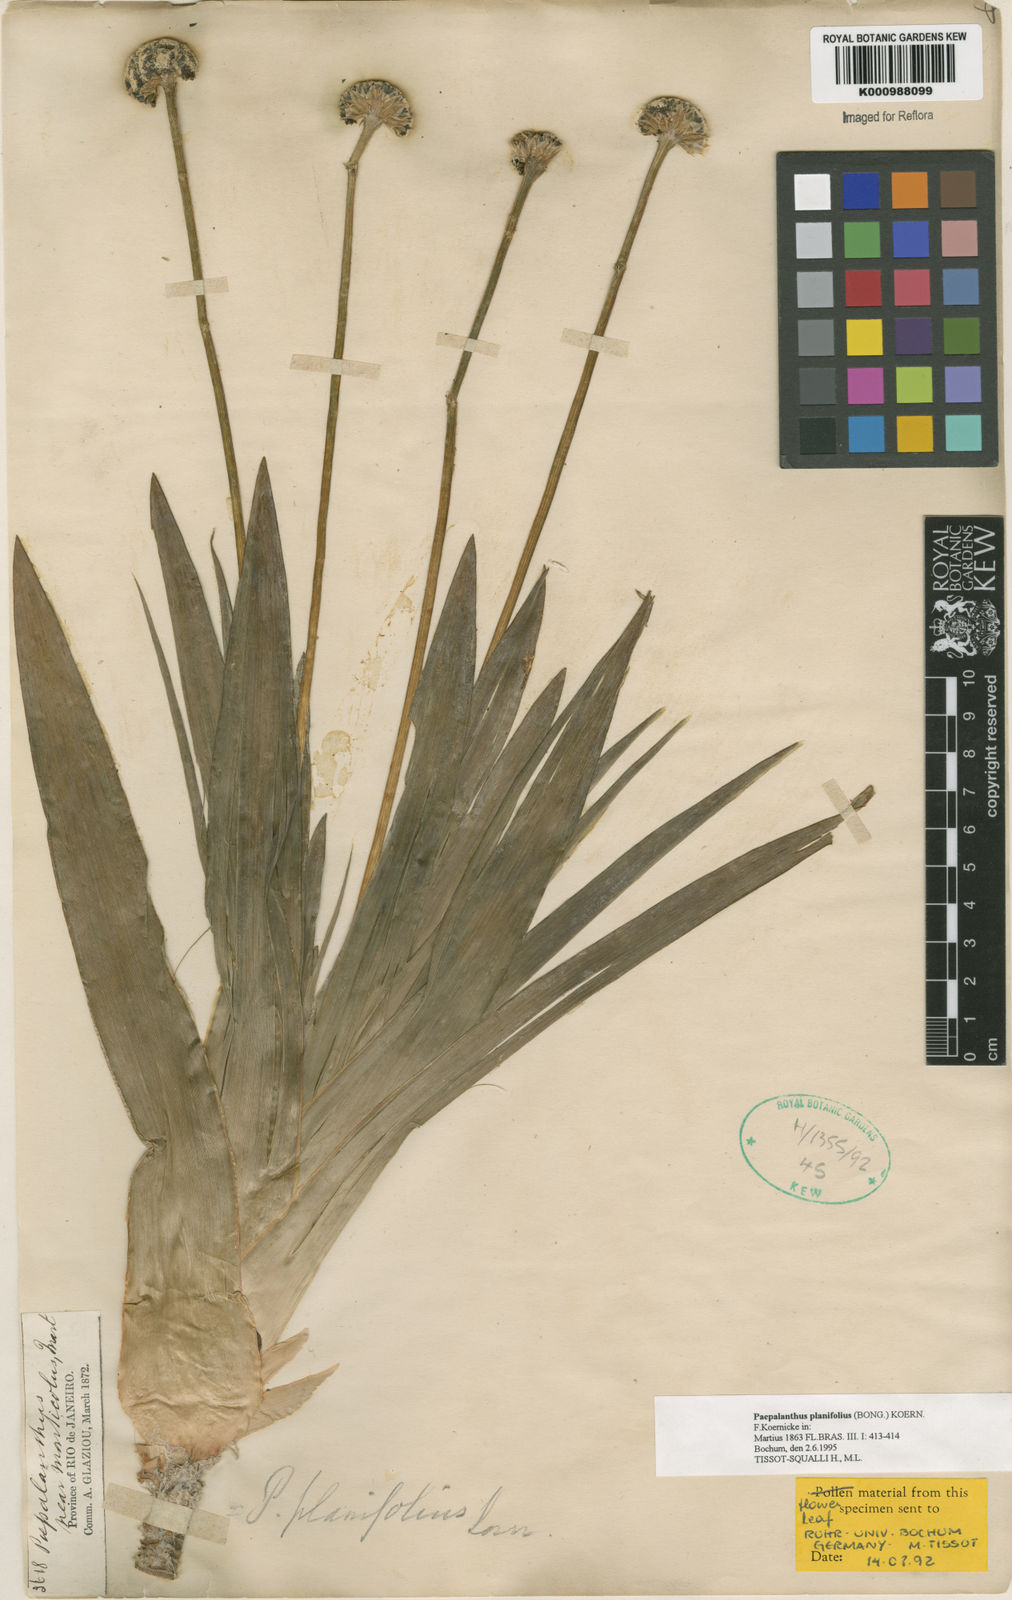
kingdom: Plantae
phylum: Tracheophyta
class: Liliopsida
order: Poales
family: Eriocaulaceae
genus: Paepalanthus
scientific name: Paepalanthus
